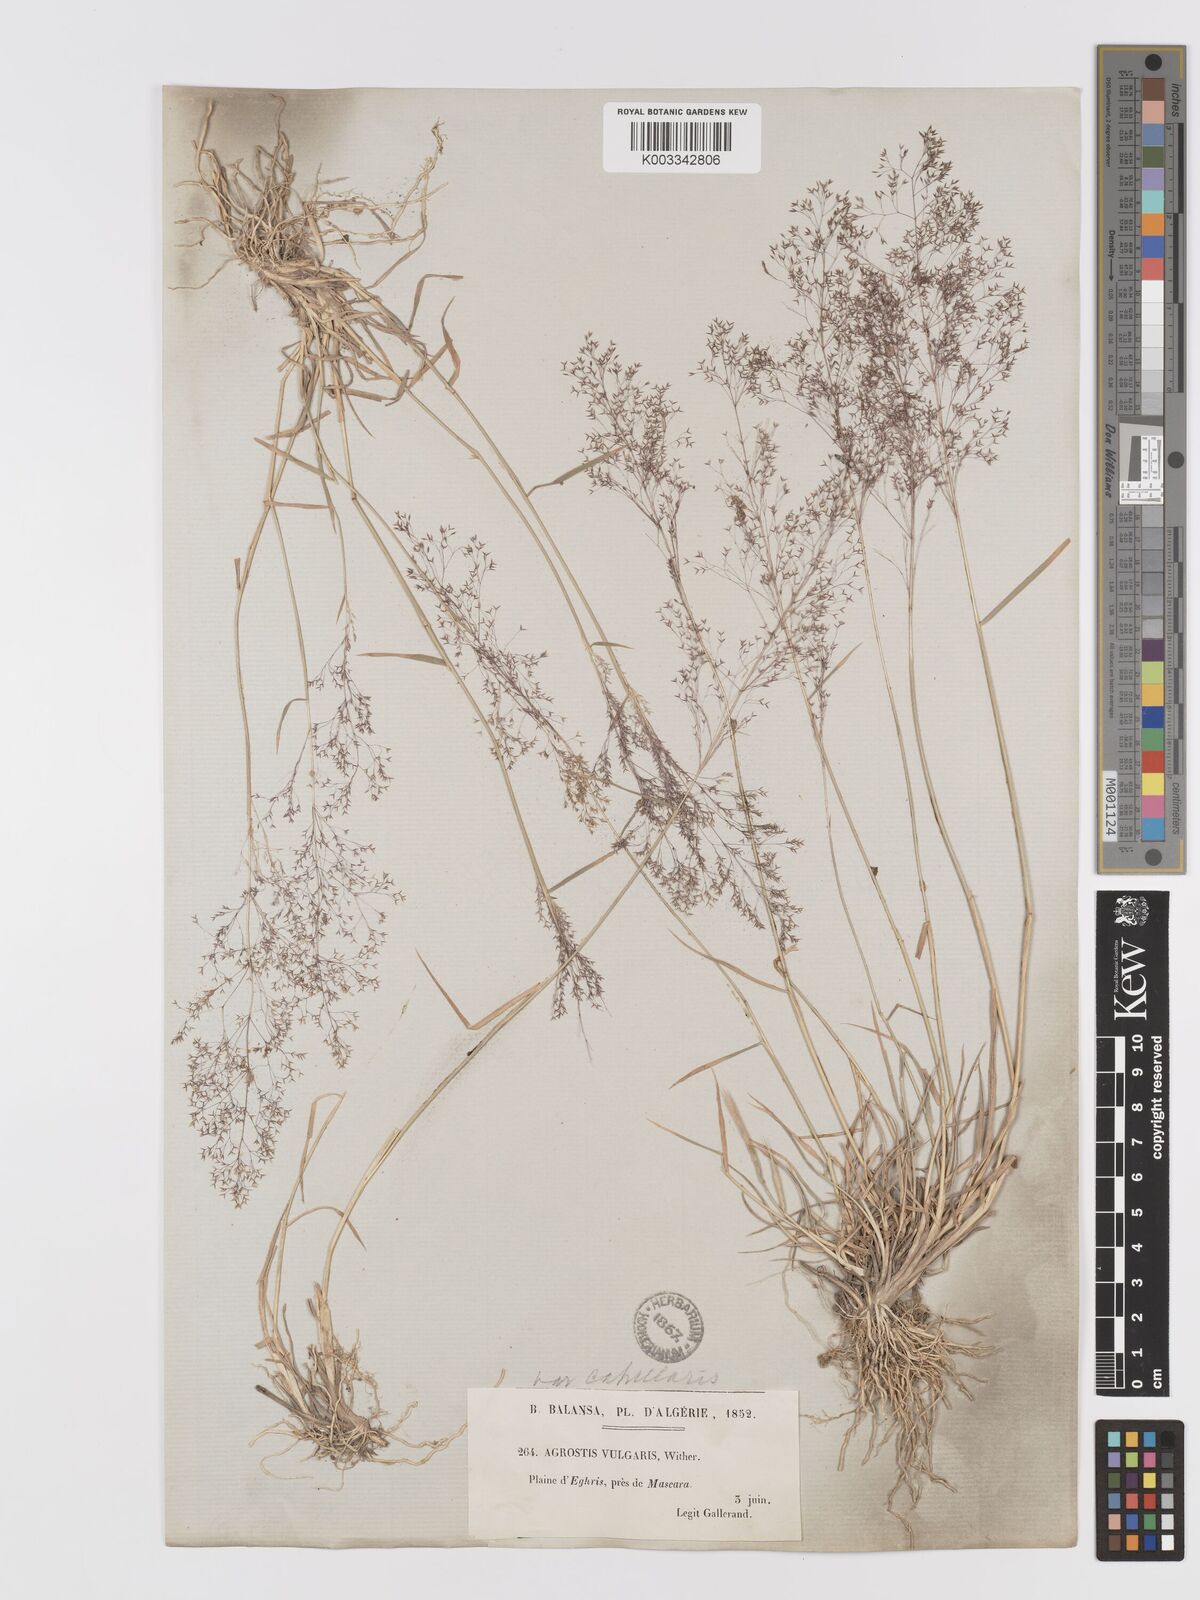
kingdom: Plantae
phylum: Tracheophyta
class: Liliopsida
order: Poales
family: Poaceae
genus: Agrostis
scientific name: Agrostis reuteri
